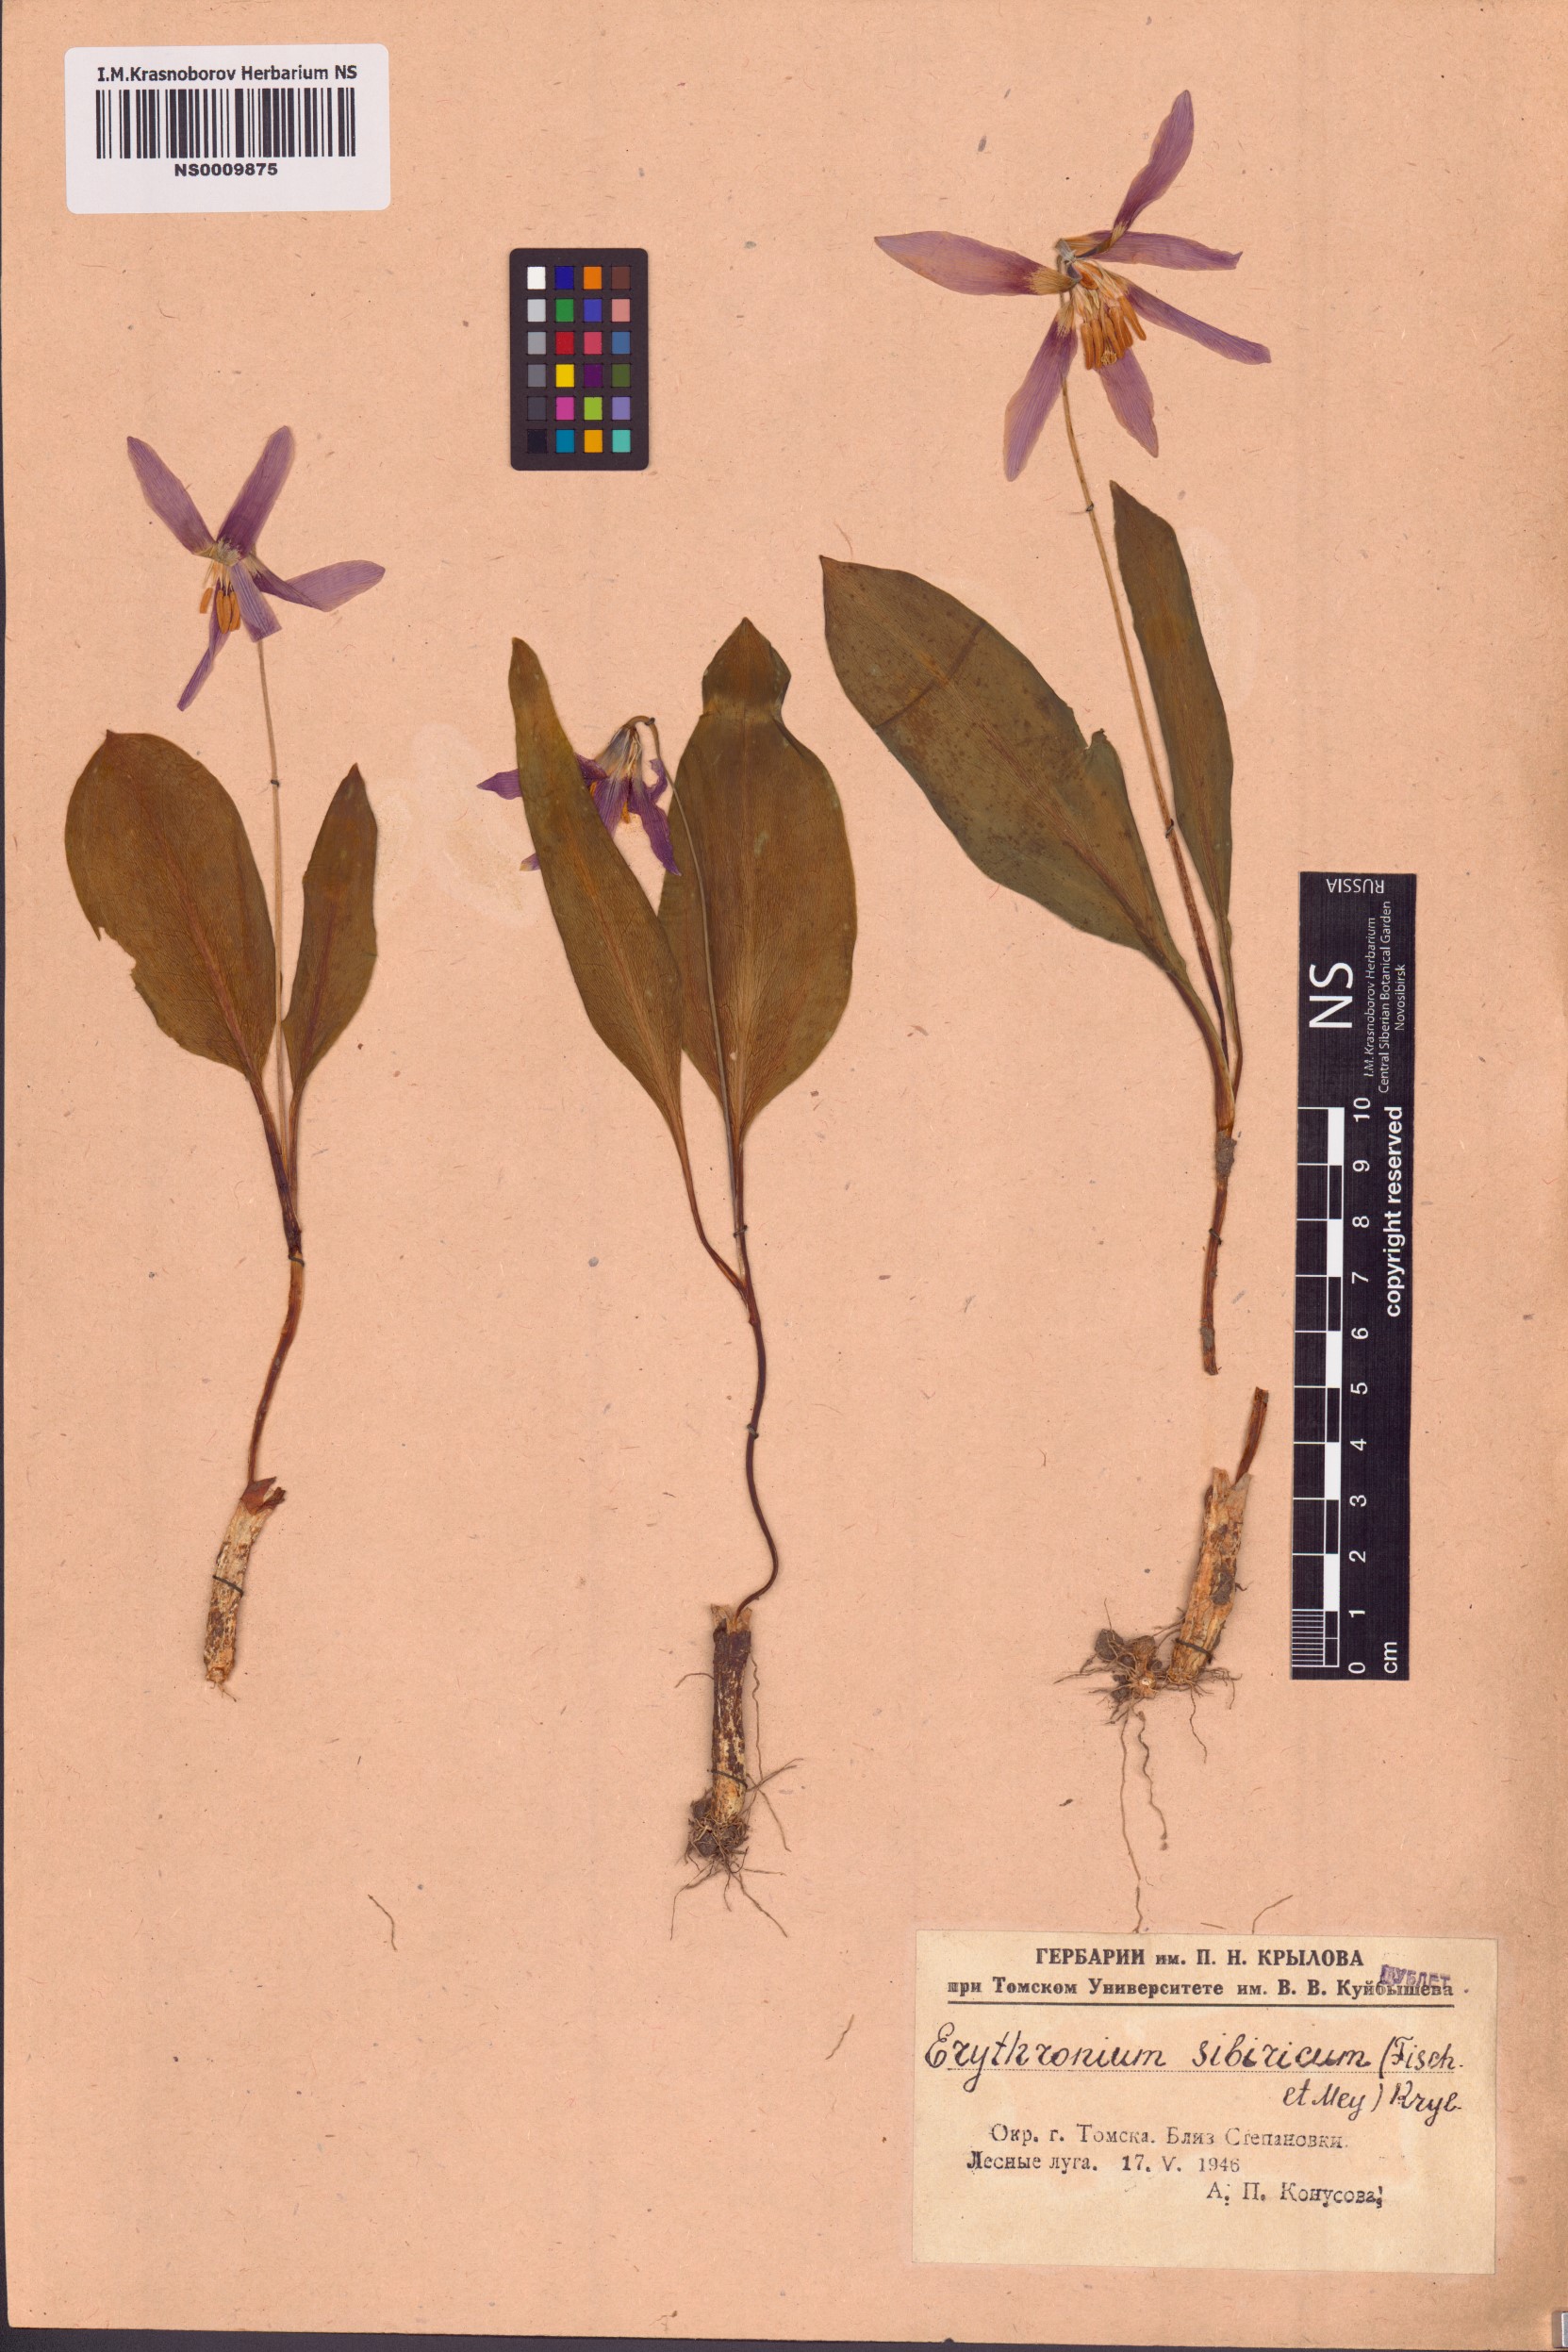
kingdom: Plantae
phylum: Tracheophyta
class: Liliopsida
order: Liliales
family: Liliaceae
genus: Erythronium
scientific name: Erythronium sibiricum
